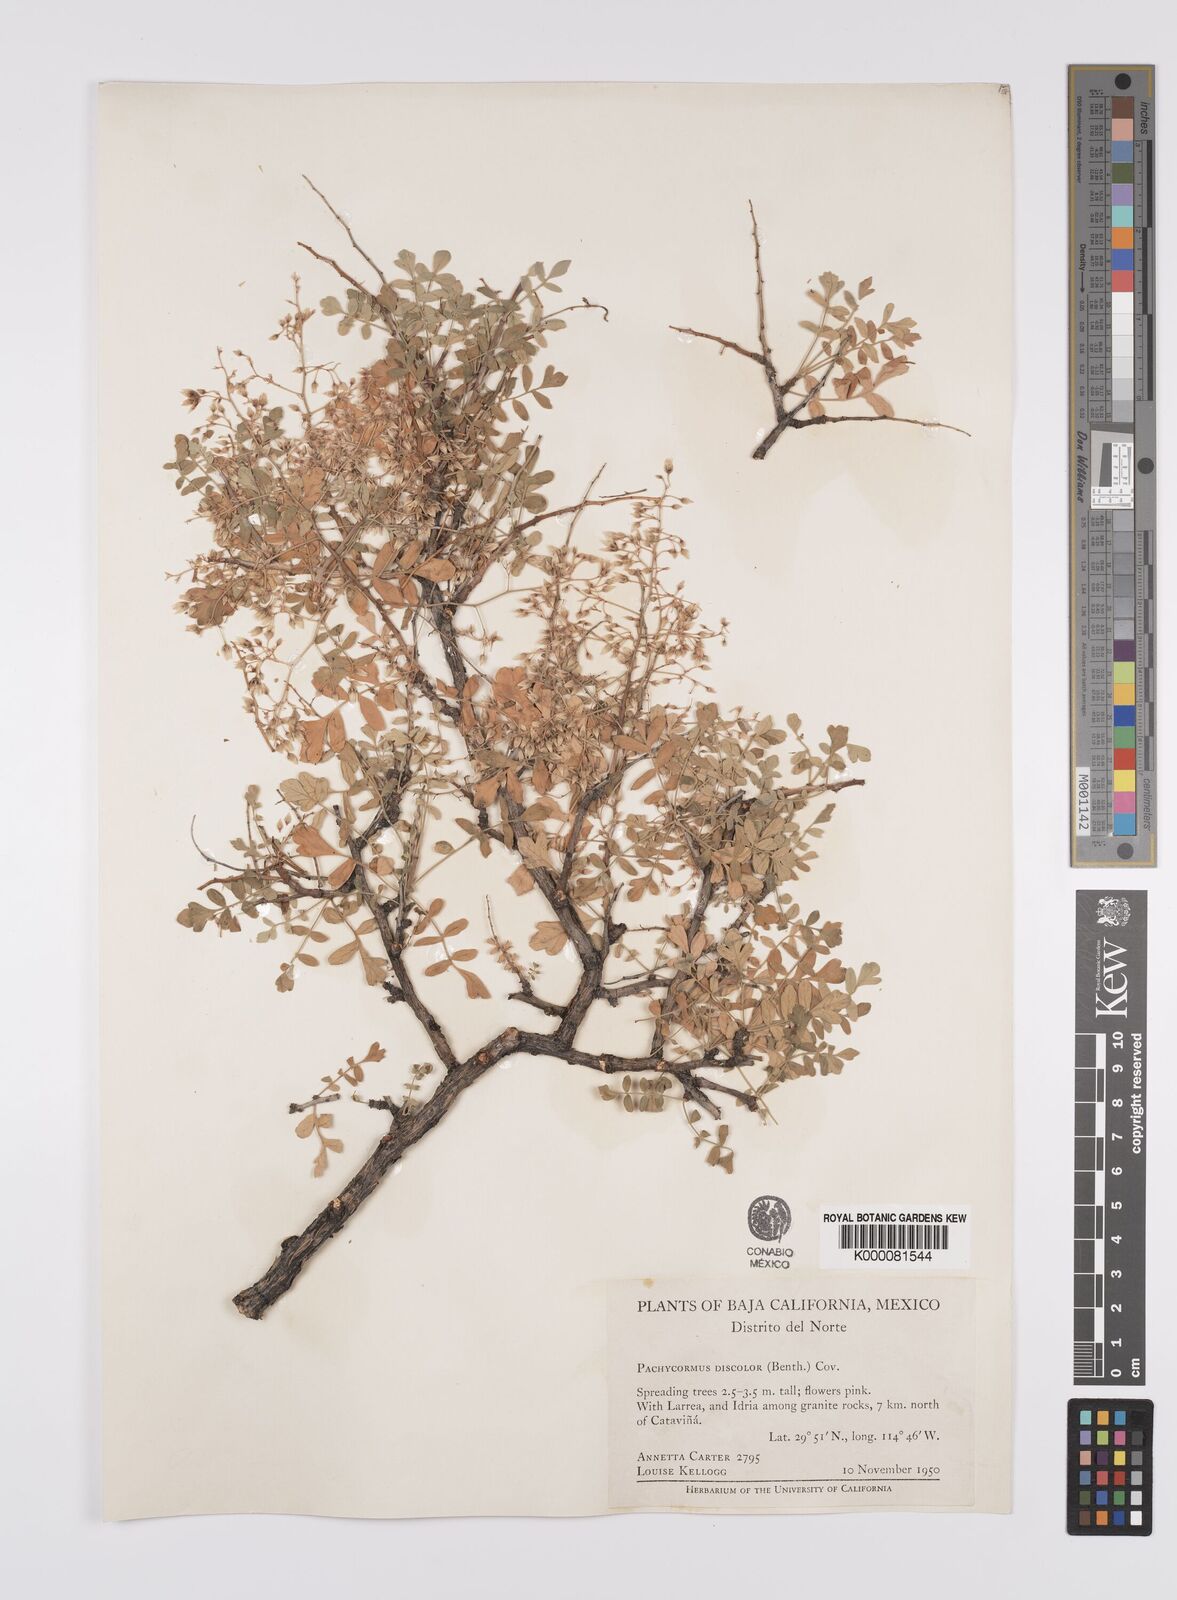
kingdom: Plantae
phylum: Tracheophyta
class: Magnoliopsida
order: Sapindales
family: Anacardiaceae
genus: Pachycormus
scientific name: Pachycormus
